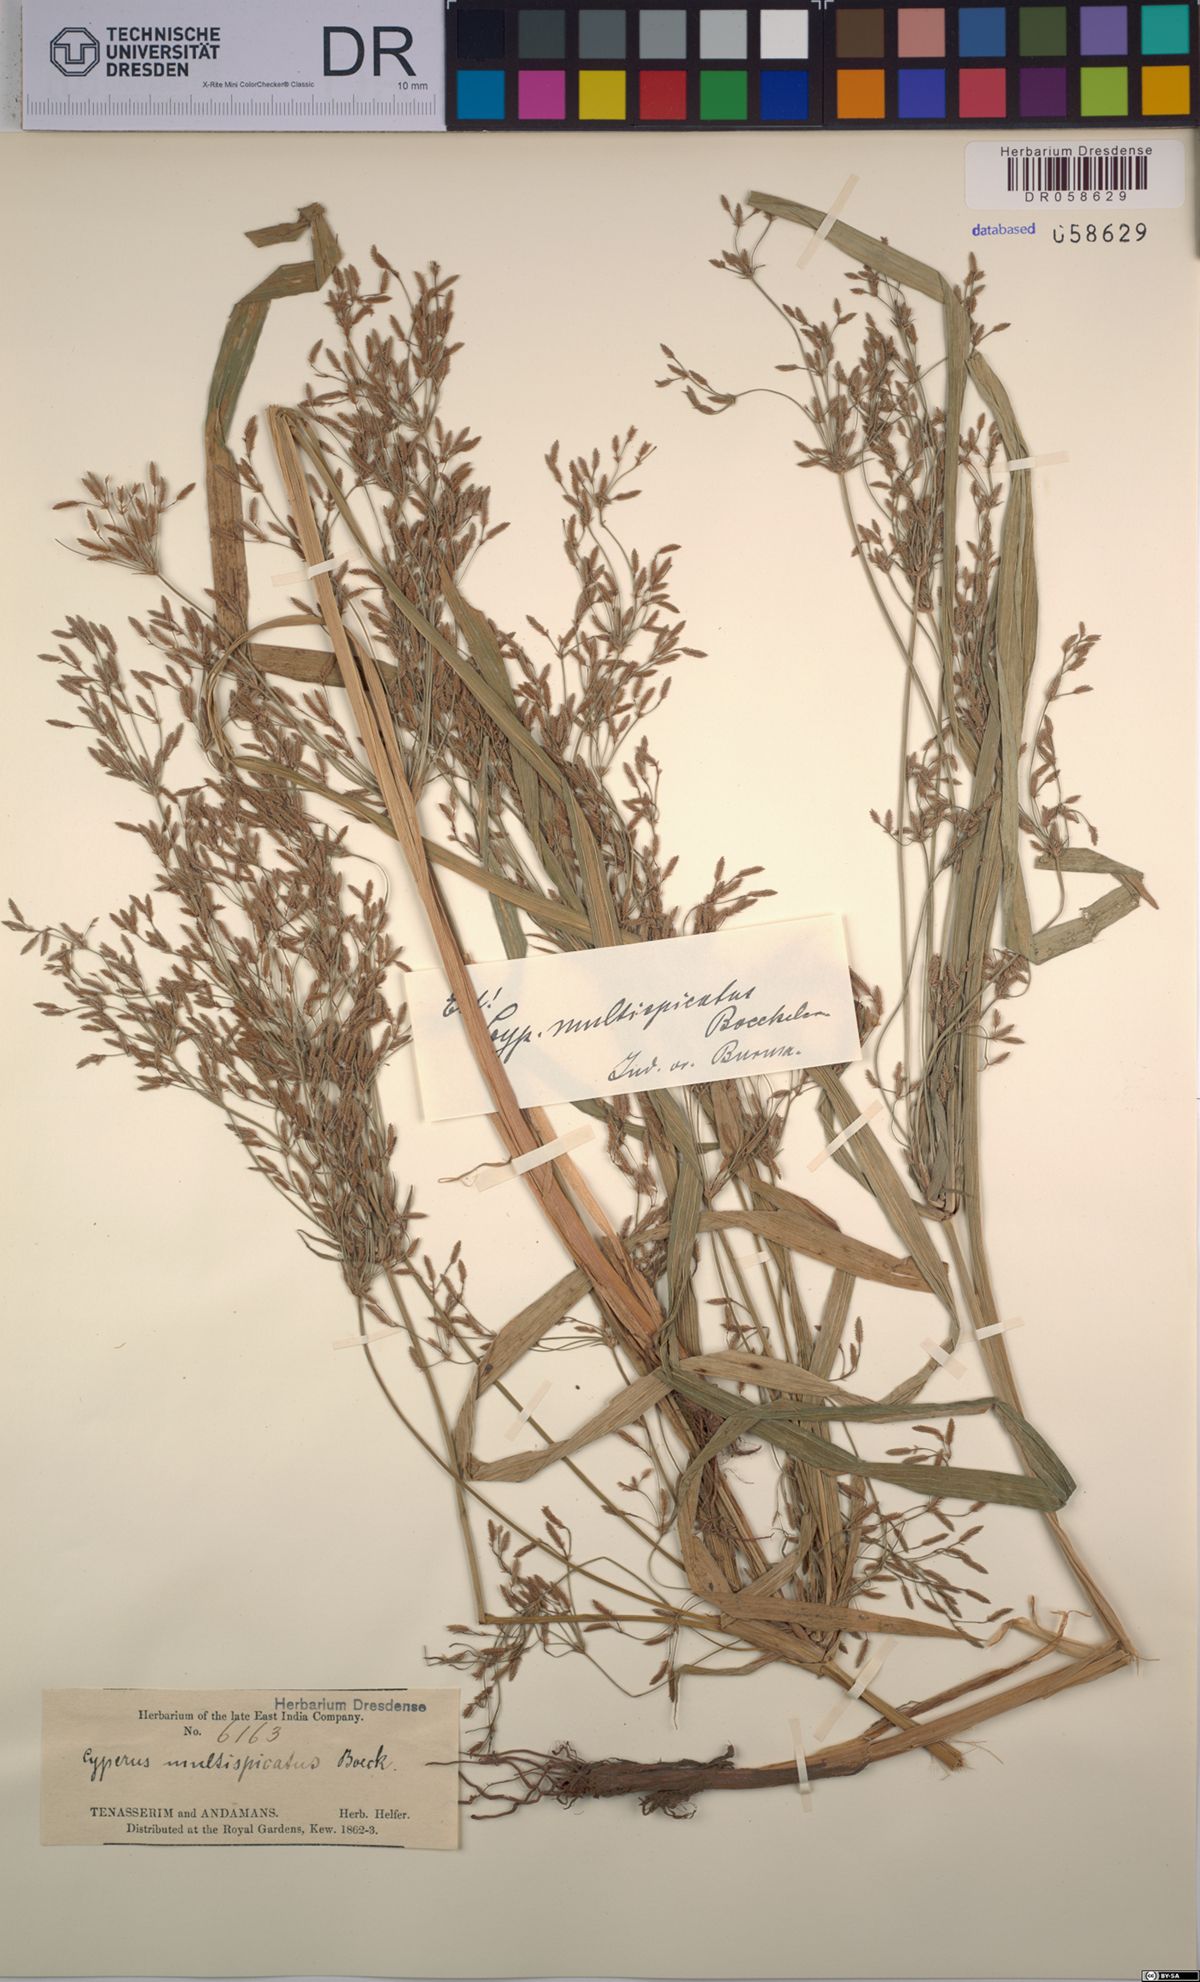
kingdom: Plantae
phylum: Tracheophyta
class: Liliopsida
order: Poales
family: Cyperaceae
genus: Cyperus
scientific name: Cyperus multispicatus
